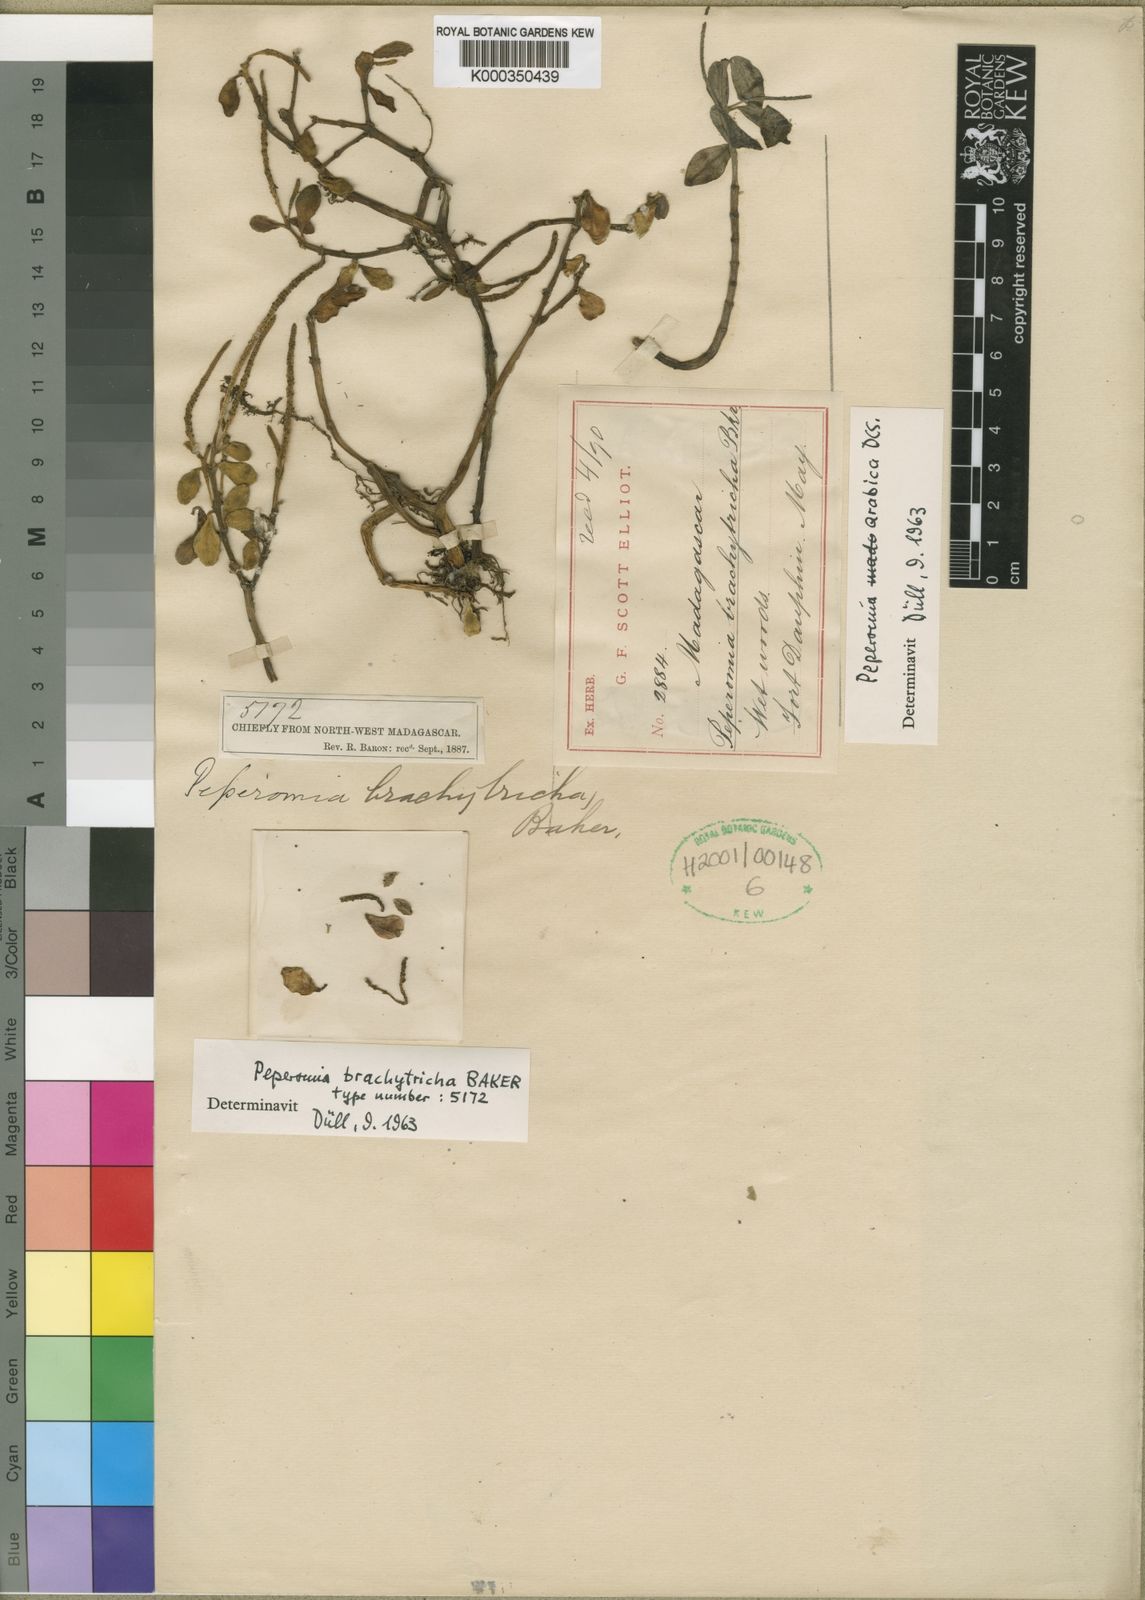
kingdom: Plantae
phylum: Tracheophyta
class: Magnoliopsida
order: Piperales
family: Piperaceae
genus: Peperomia
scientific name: Peperomia brachytricha
